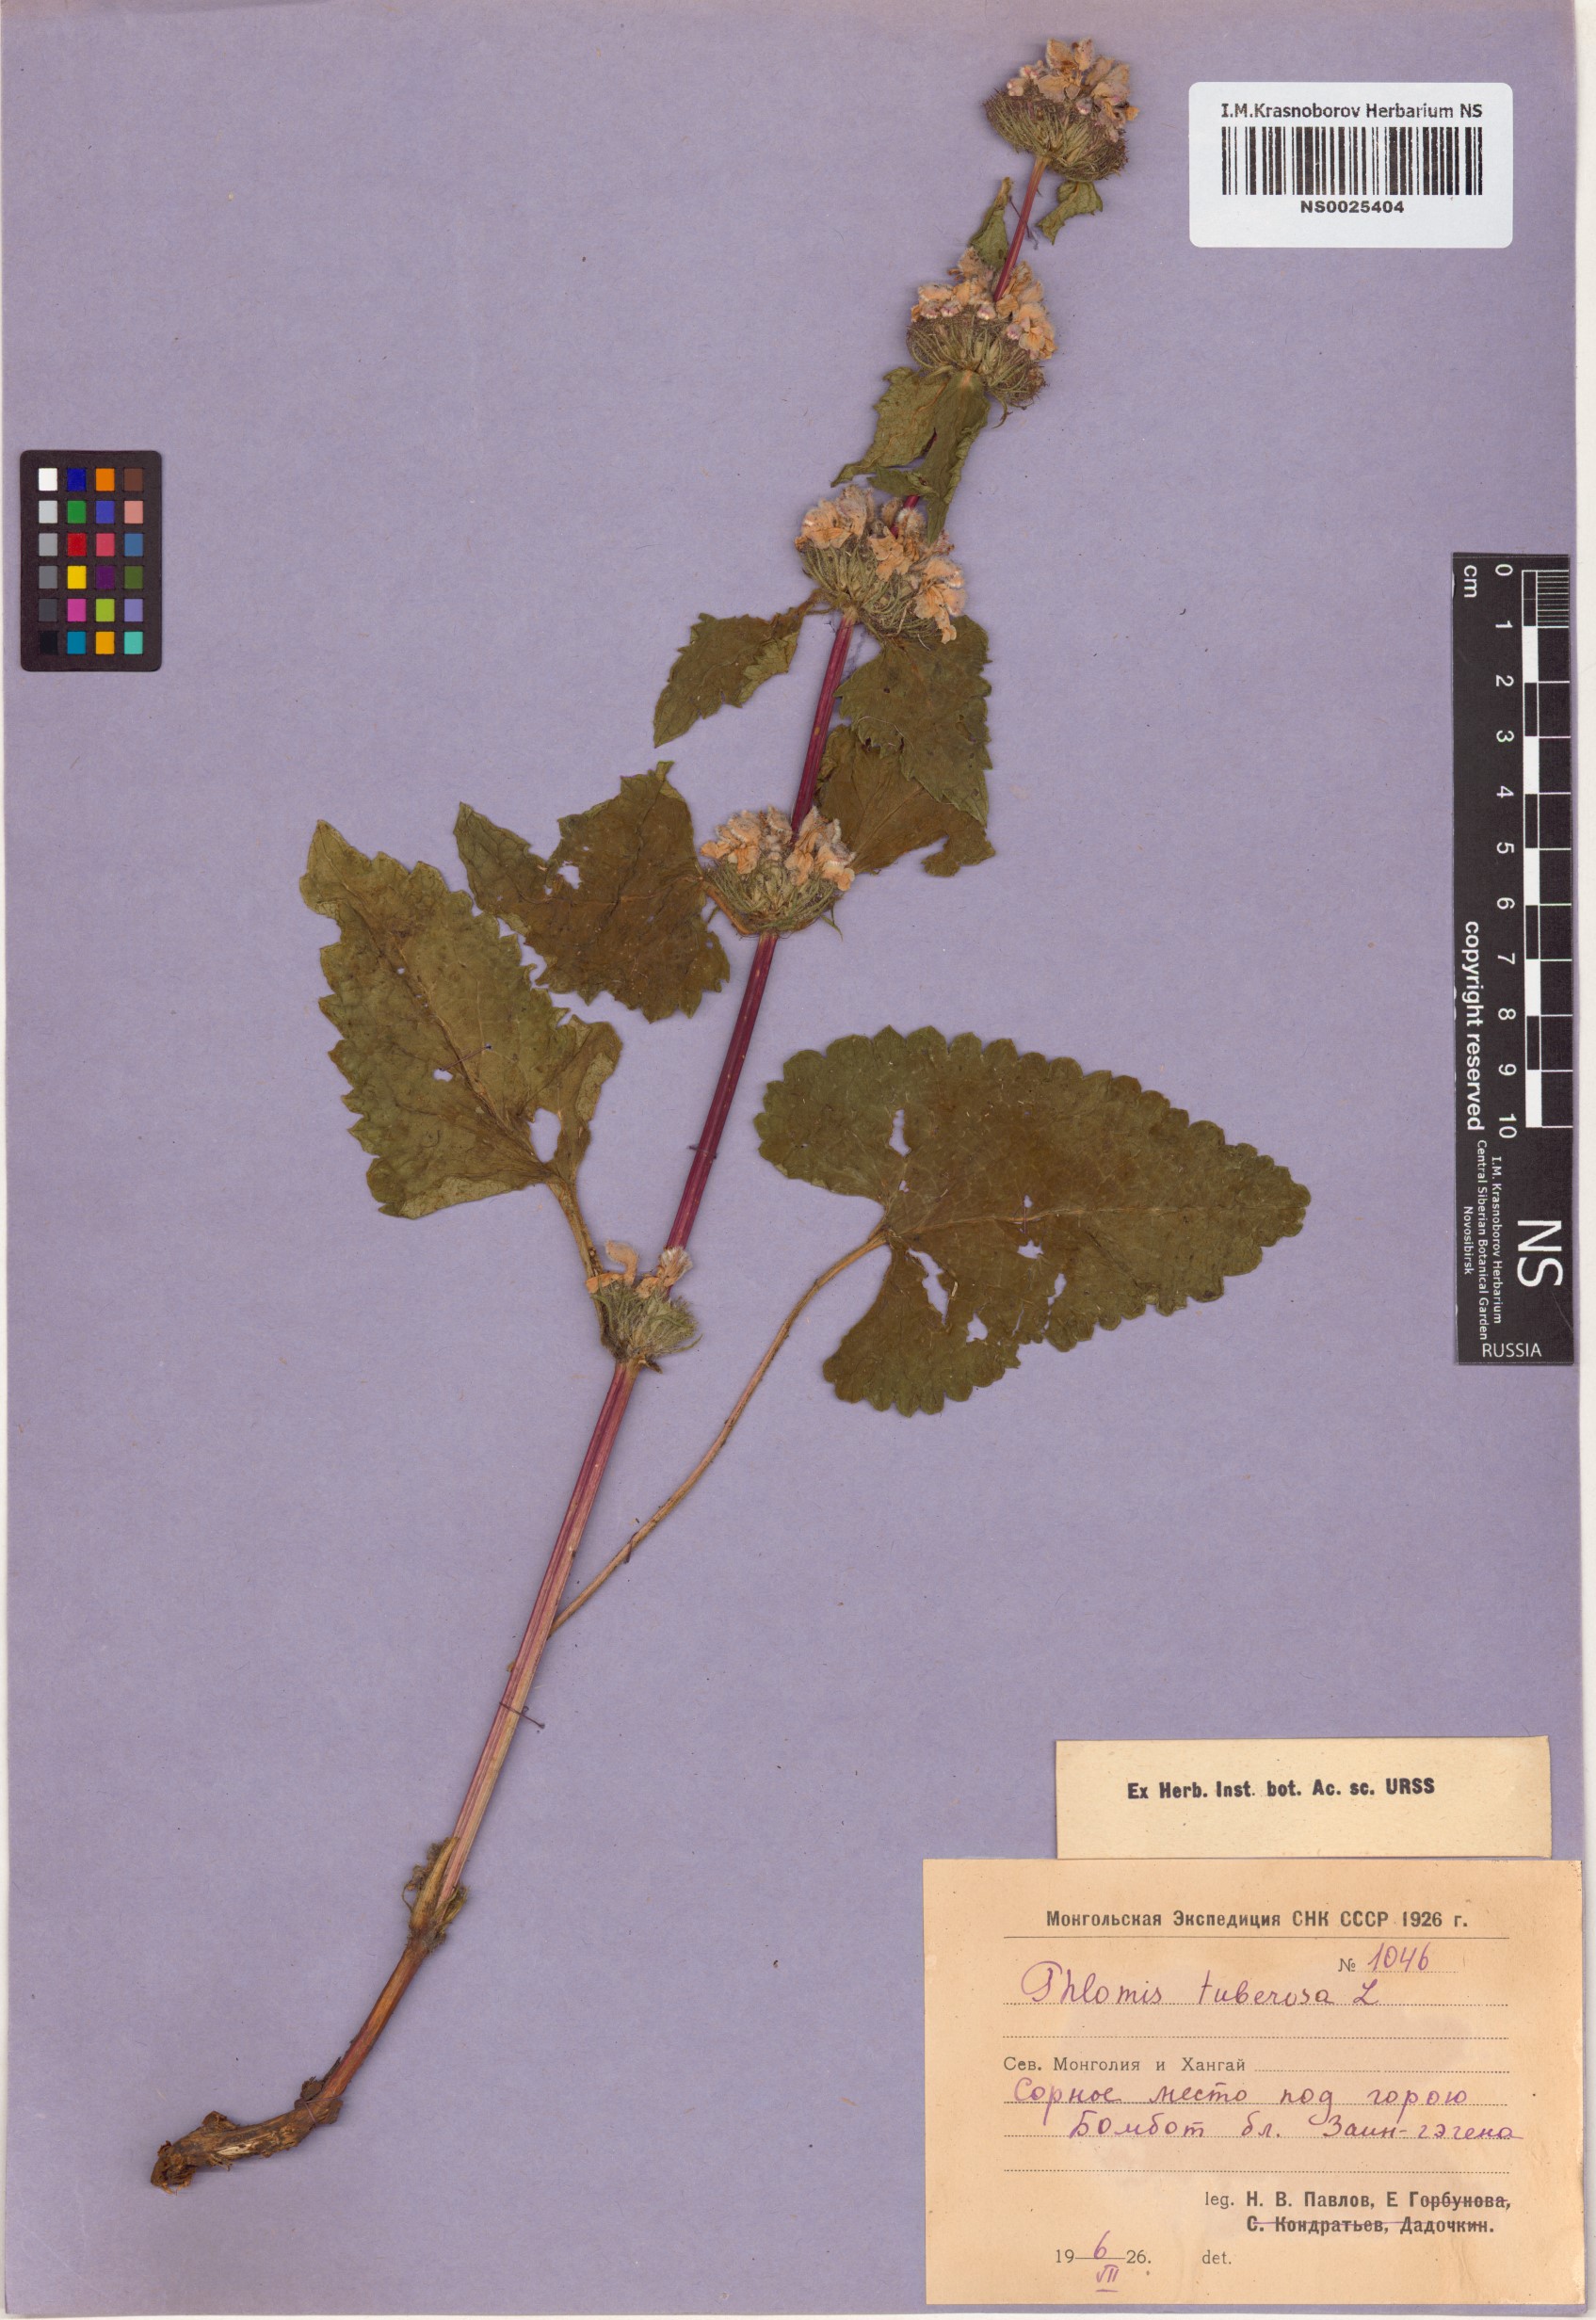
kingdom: Plantae
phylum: Tracheophyta
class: Magnoliopsida
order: Lamiales
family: Lamiaceae
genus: Phlomoides
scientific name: Phlomoides tuberosa
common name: Tuberous jerusalem sage
